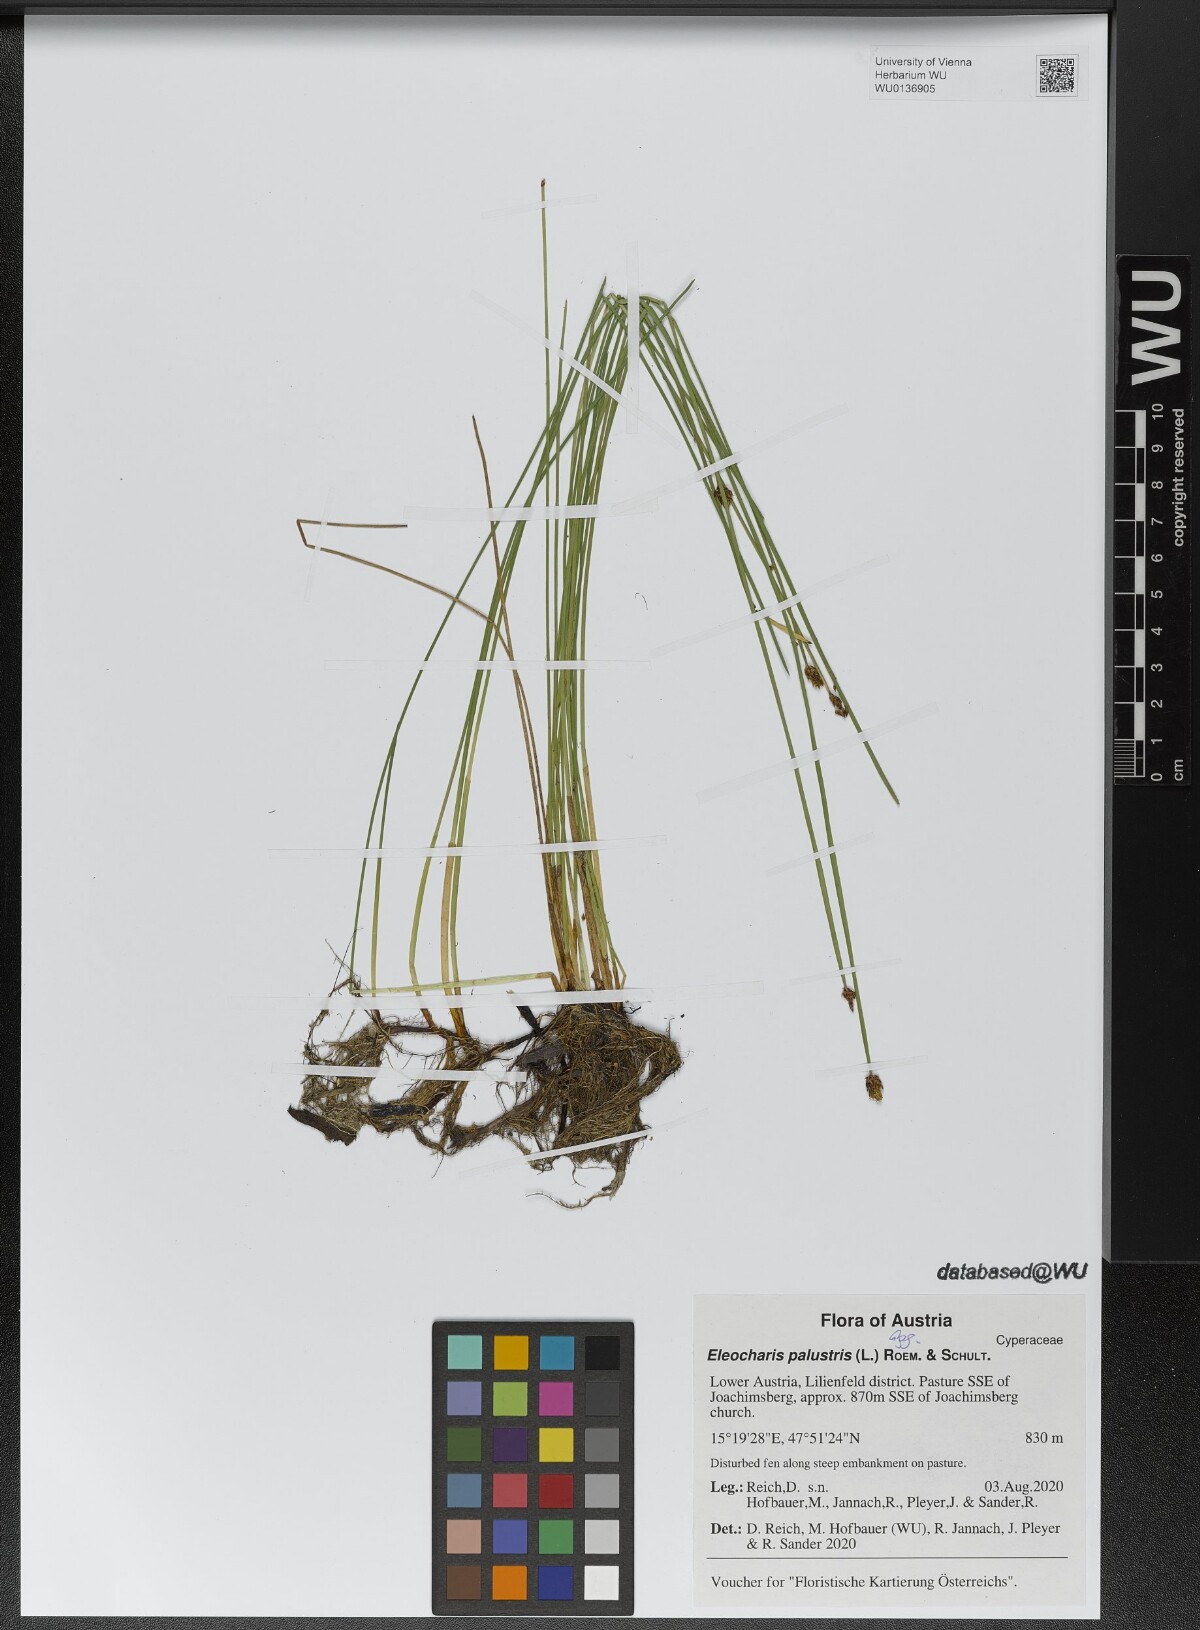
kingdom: Plantae
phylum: Tracheophyta
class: Liliopsida
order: Poales
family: Cyperaceae
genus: Eleocharis
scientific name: Eleocharis palustris
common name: Common spike-rush
